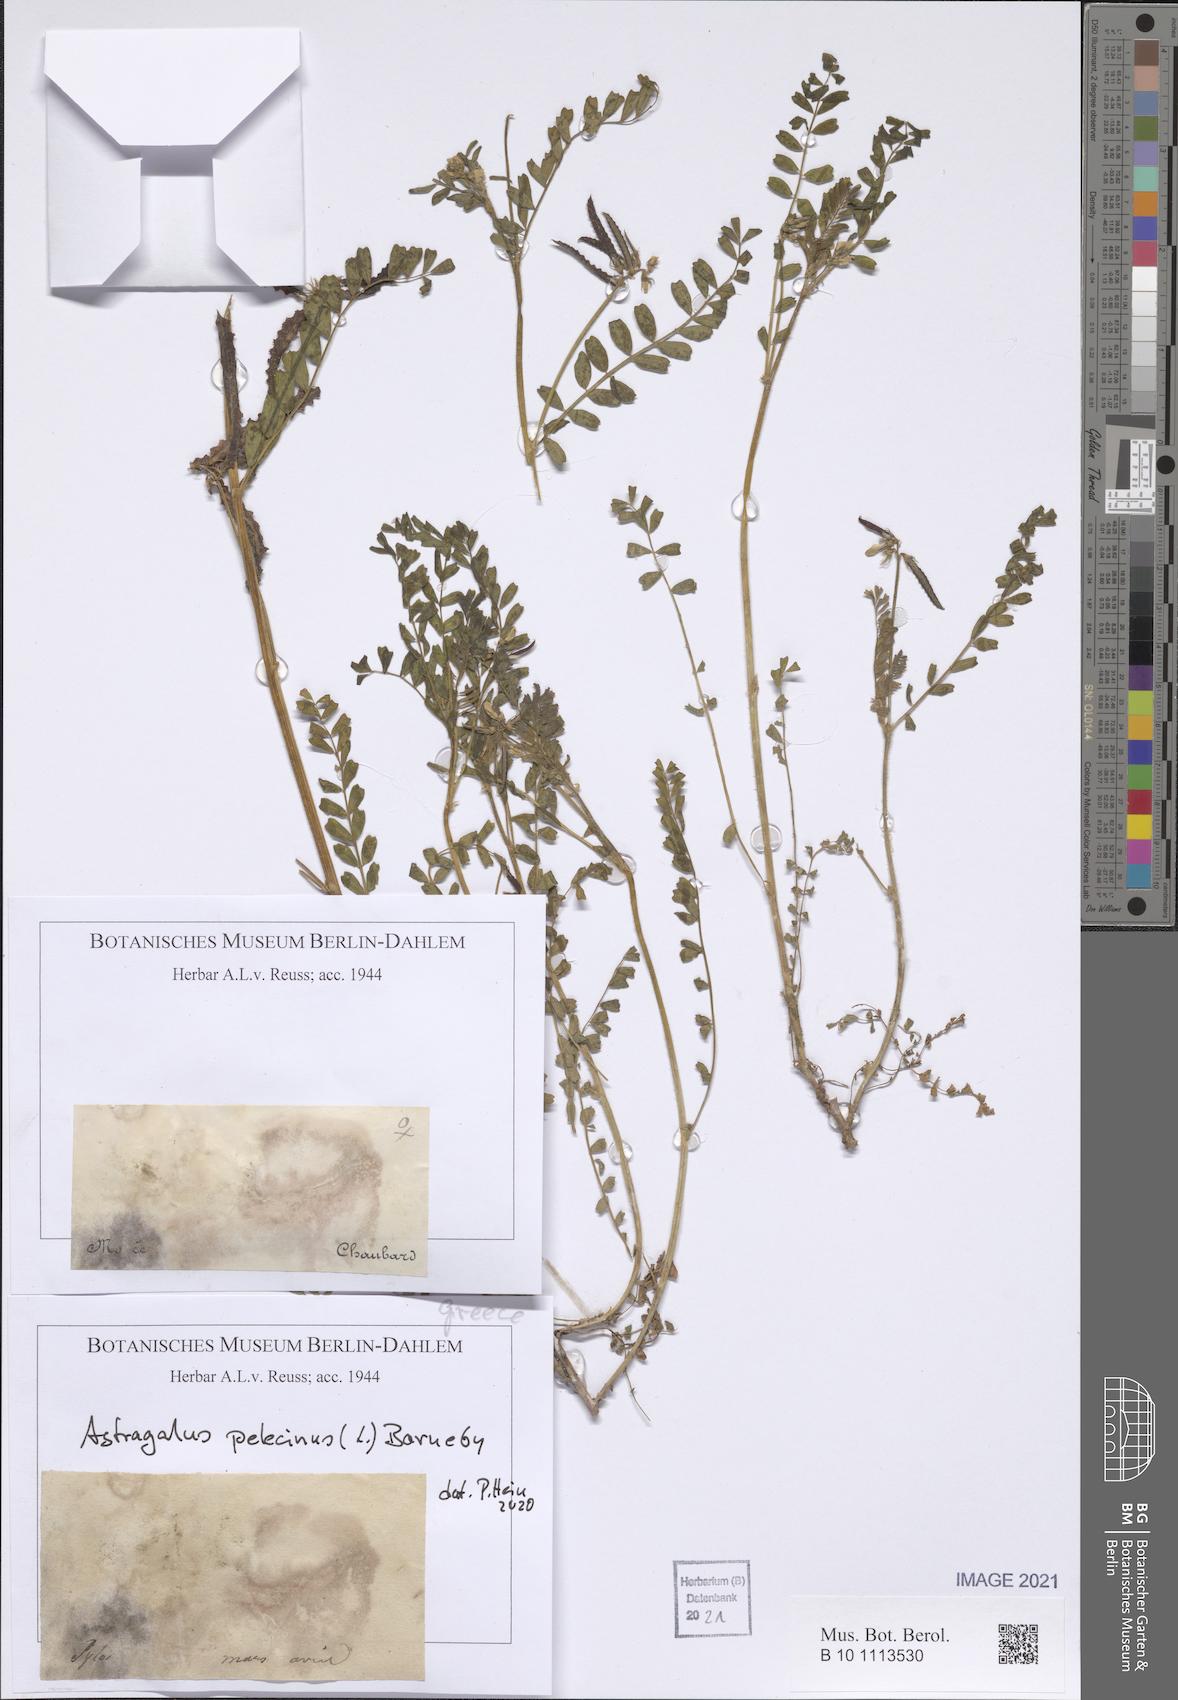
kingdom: Plantae
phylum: Tracheophyta
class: Magnoliopsida
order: Fabales
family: Fabaceae
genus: Biserrula
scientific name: Biserrula pelecinus
